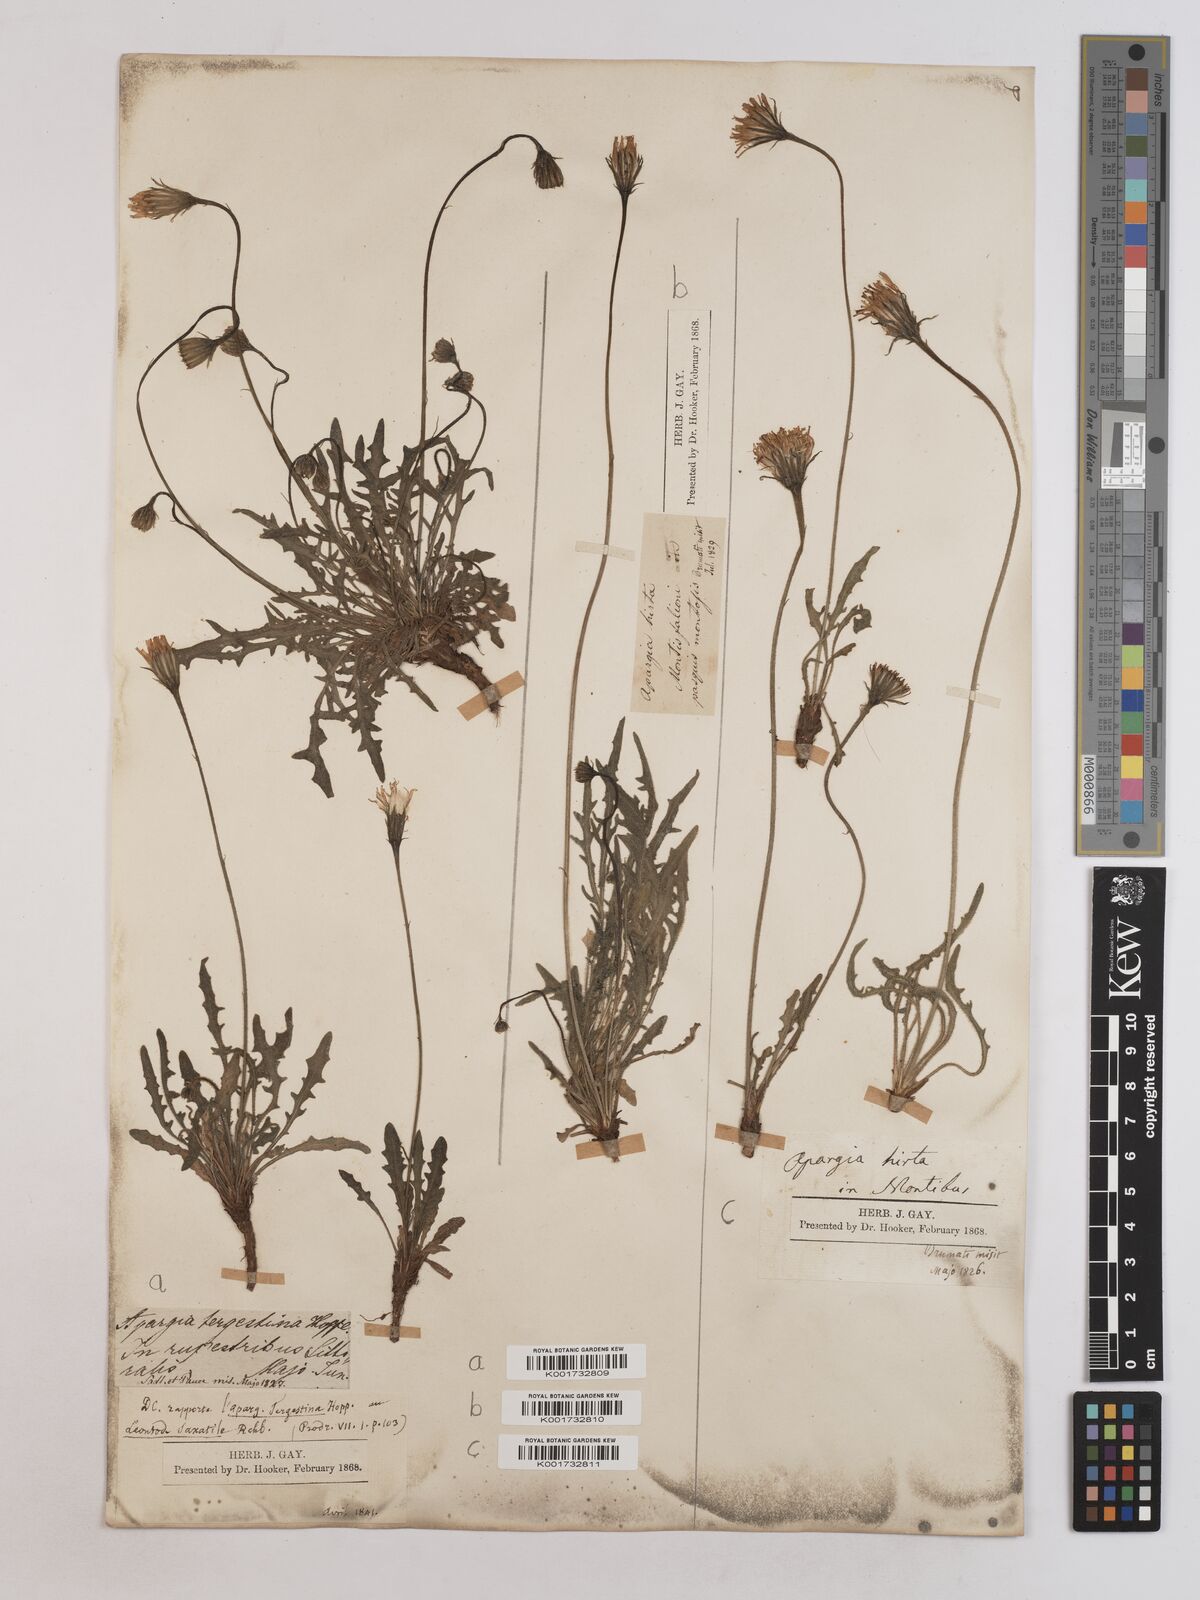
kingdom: Plantae
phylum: Tracheophyta
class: Magnoliopsida
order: Asterales
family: Asteraceae
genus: Leontodon
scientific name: Leontodon crispus
